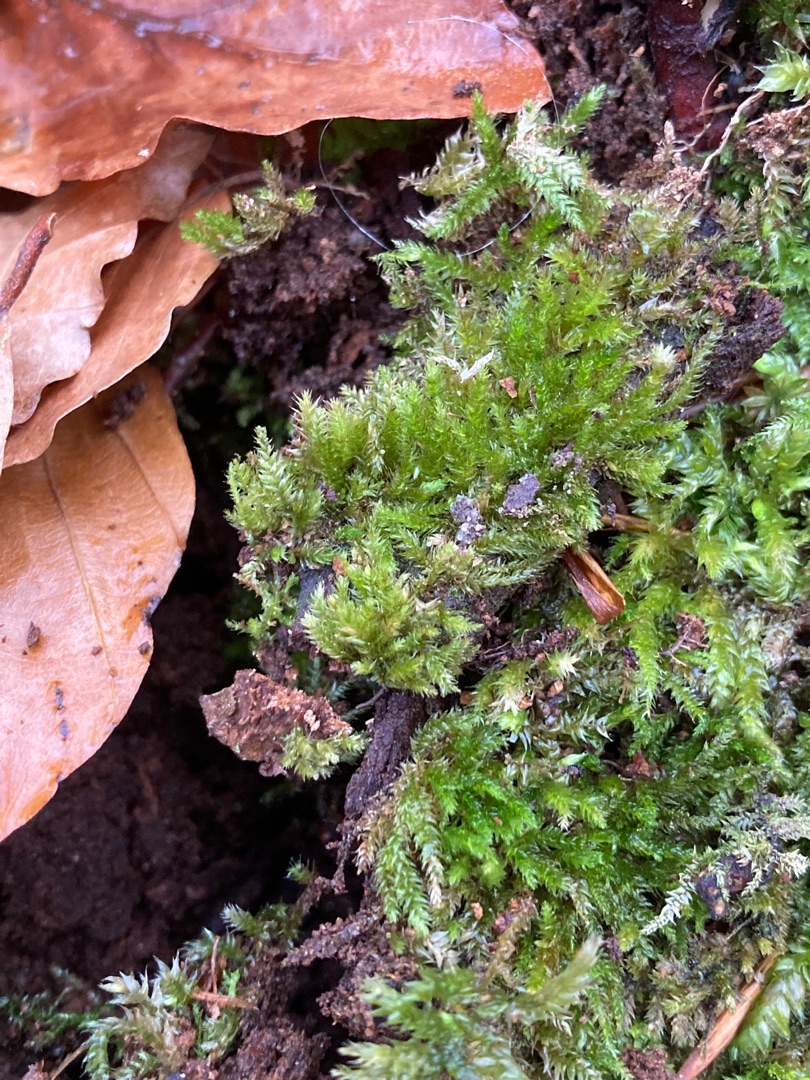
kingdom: Plantae
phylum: Bryophyta
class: Bryopsida
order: Hypnales
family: Brachytheciaceae
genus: Oxyrrhynchium
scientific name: Oxyrrhynchium schleicheri
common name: Vredet vortetand
